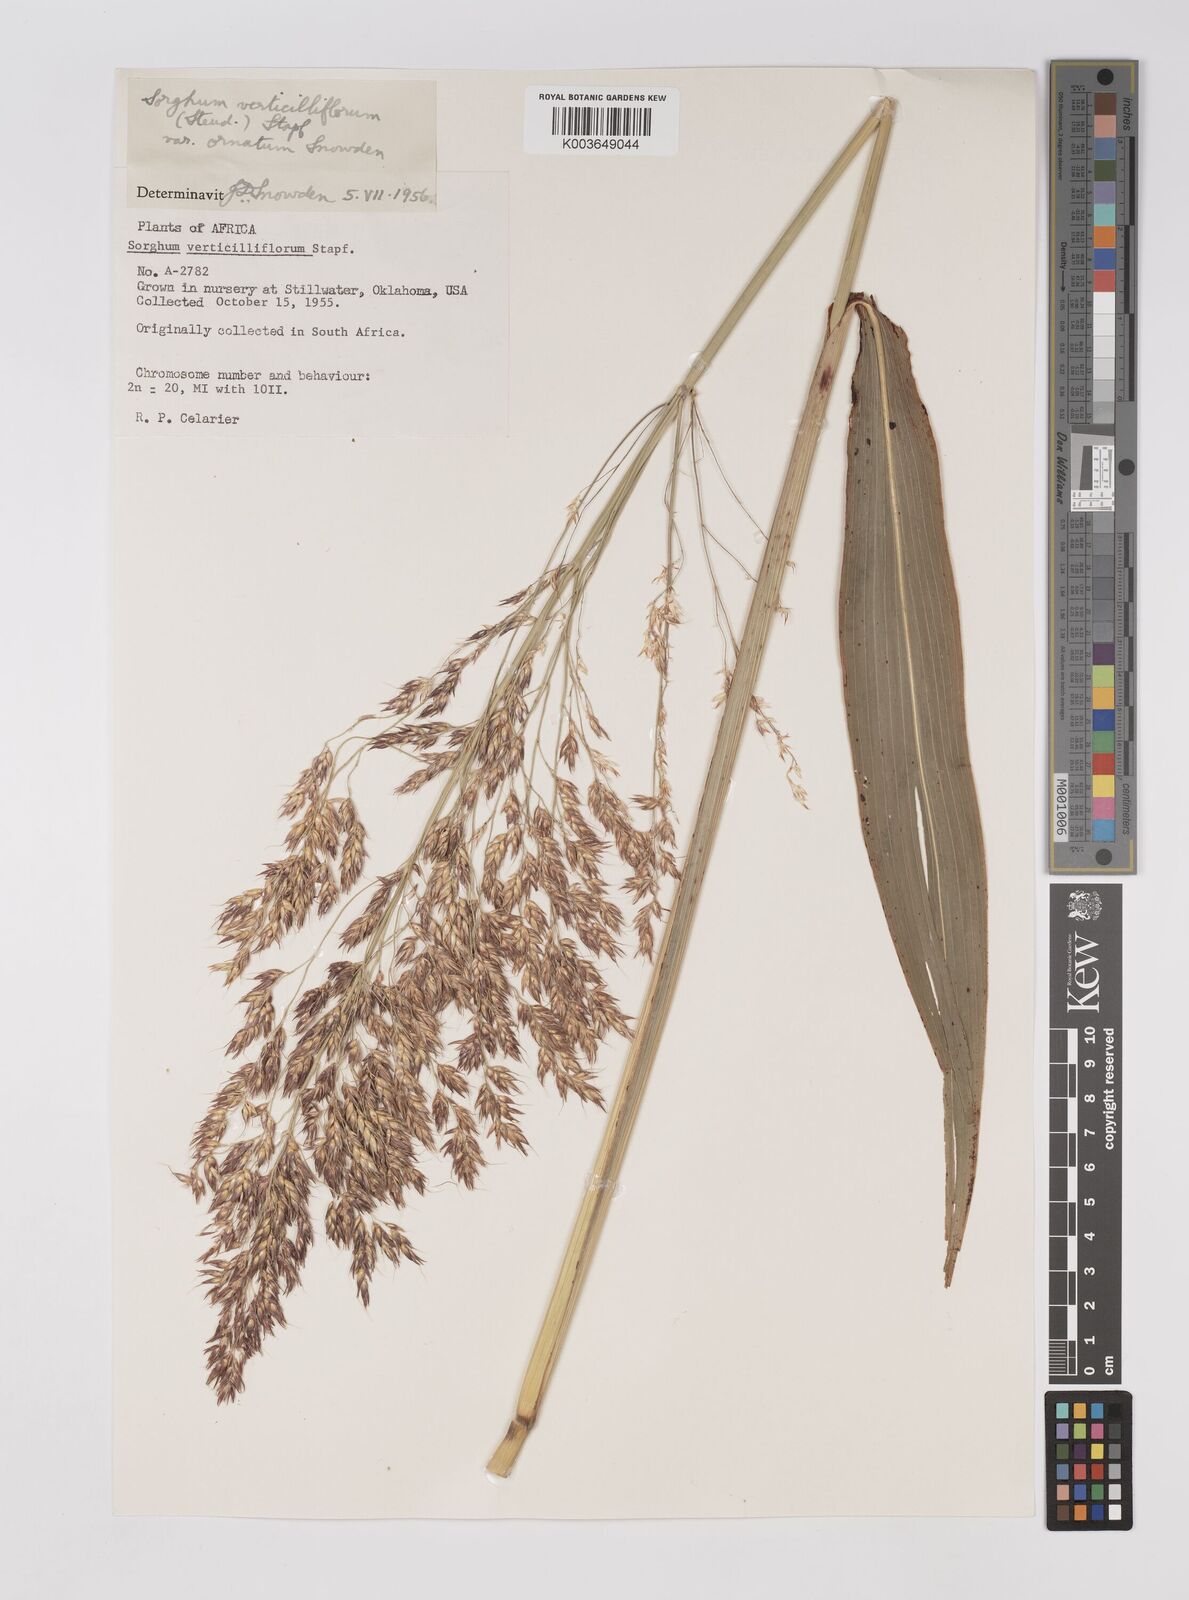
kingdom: Plantae
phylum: Tracheophyta
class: Liliopsida
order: Poales
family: Poaceae
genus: Sorghum
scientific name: Sorghum arundinaceum
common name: Sorghum
